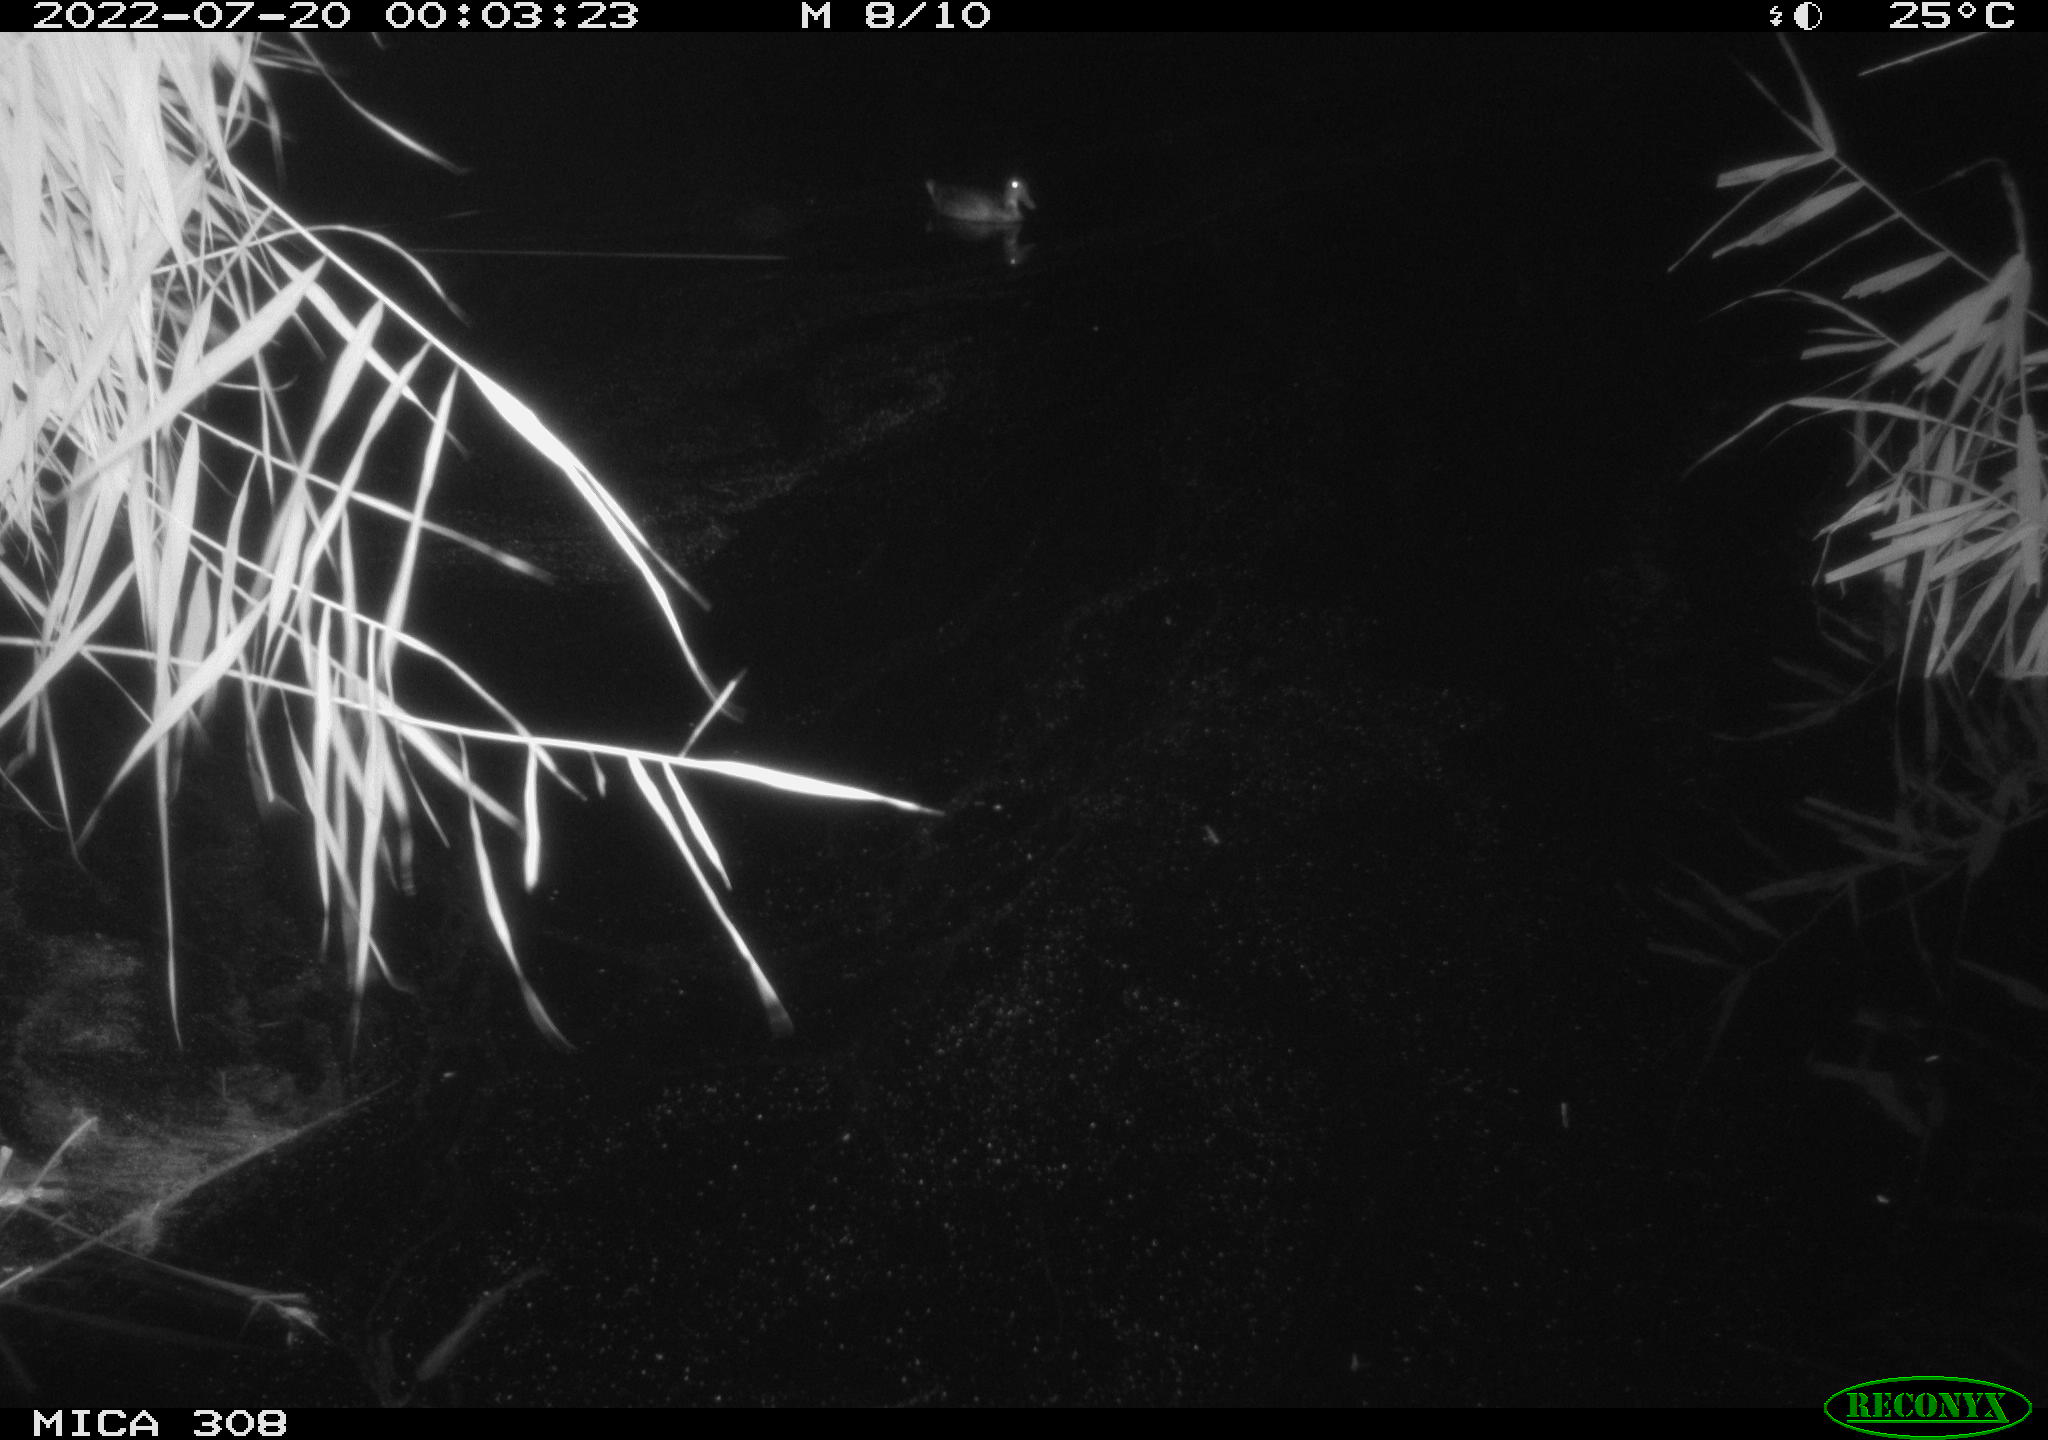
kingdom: Animalia
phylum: Chordata
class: Aves
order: Anseriformes
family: Anatidae
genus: Anas
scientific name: Anas platyrhynchos
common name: Mallard
